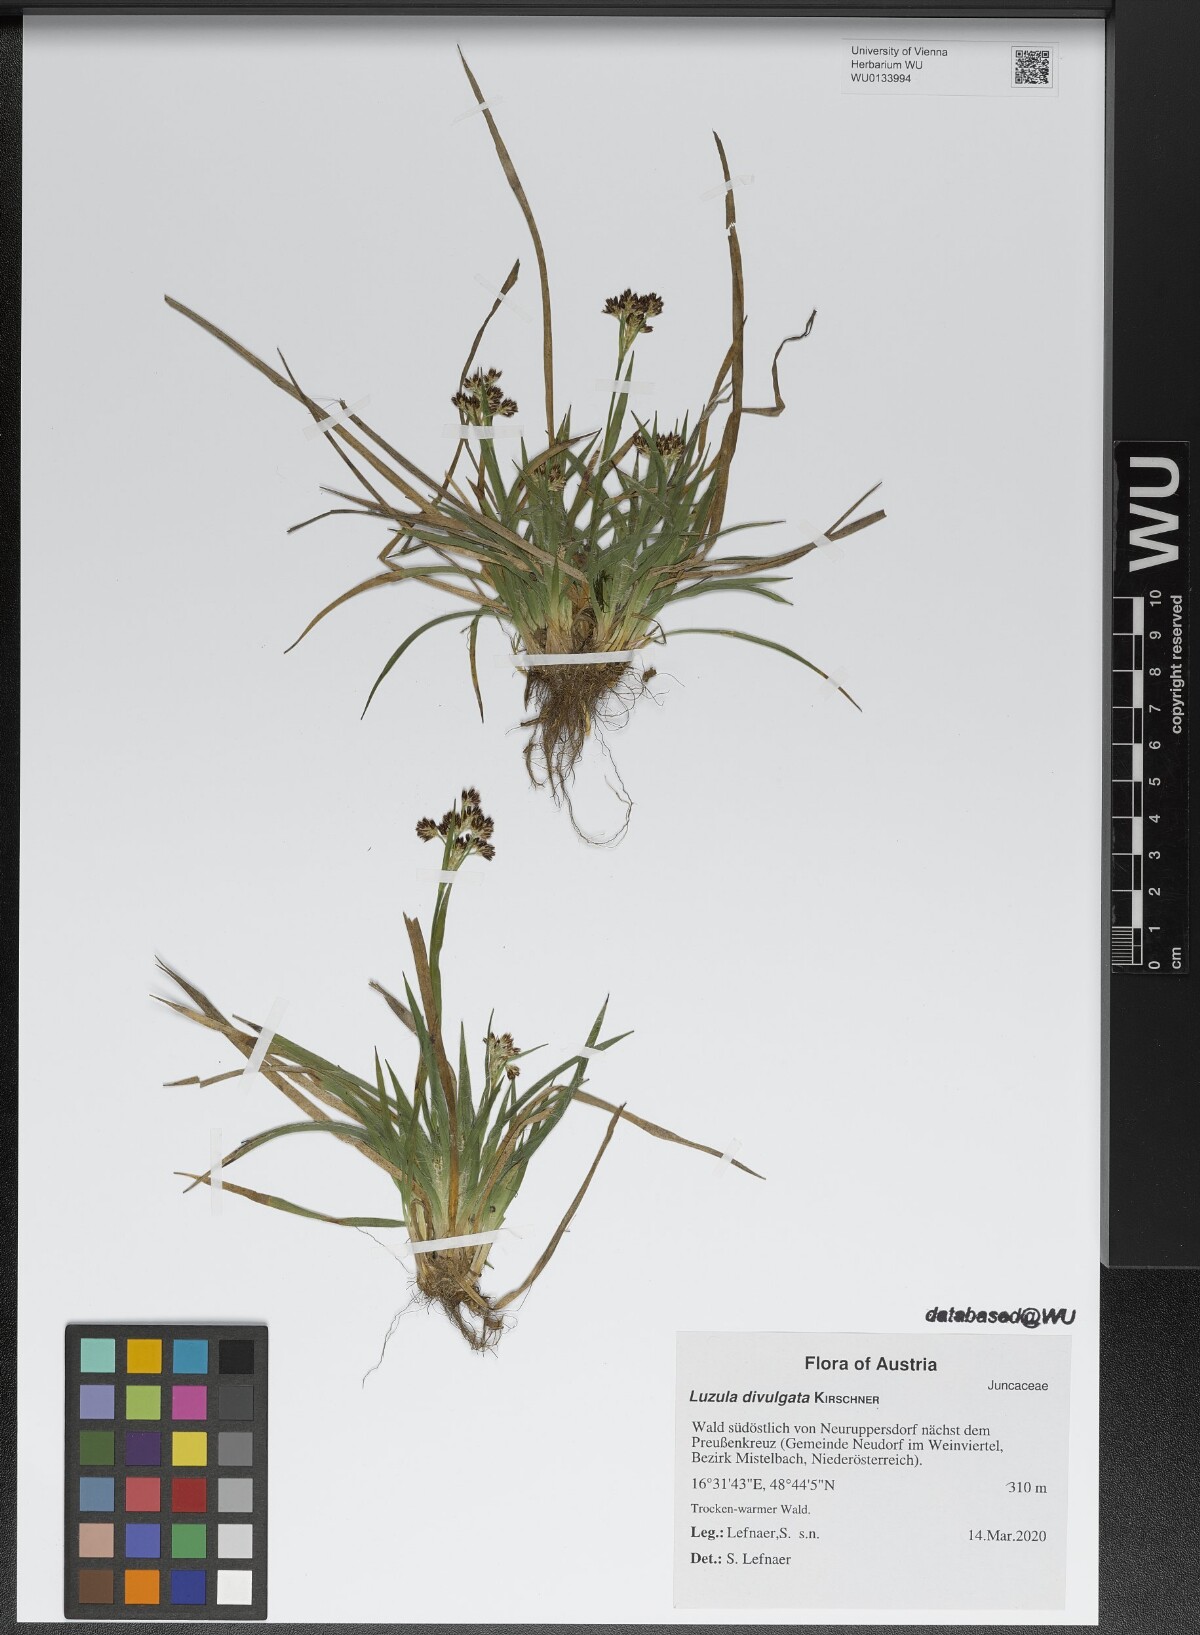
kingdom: Plantae
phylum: Tracheophyta
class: Liliopsida
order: Poales
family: Juncaceae
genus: Luzula
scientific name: Luzula divulgata
